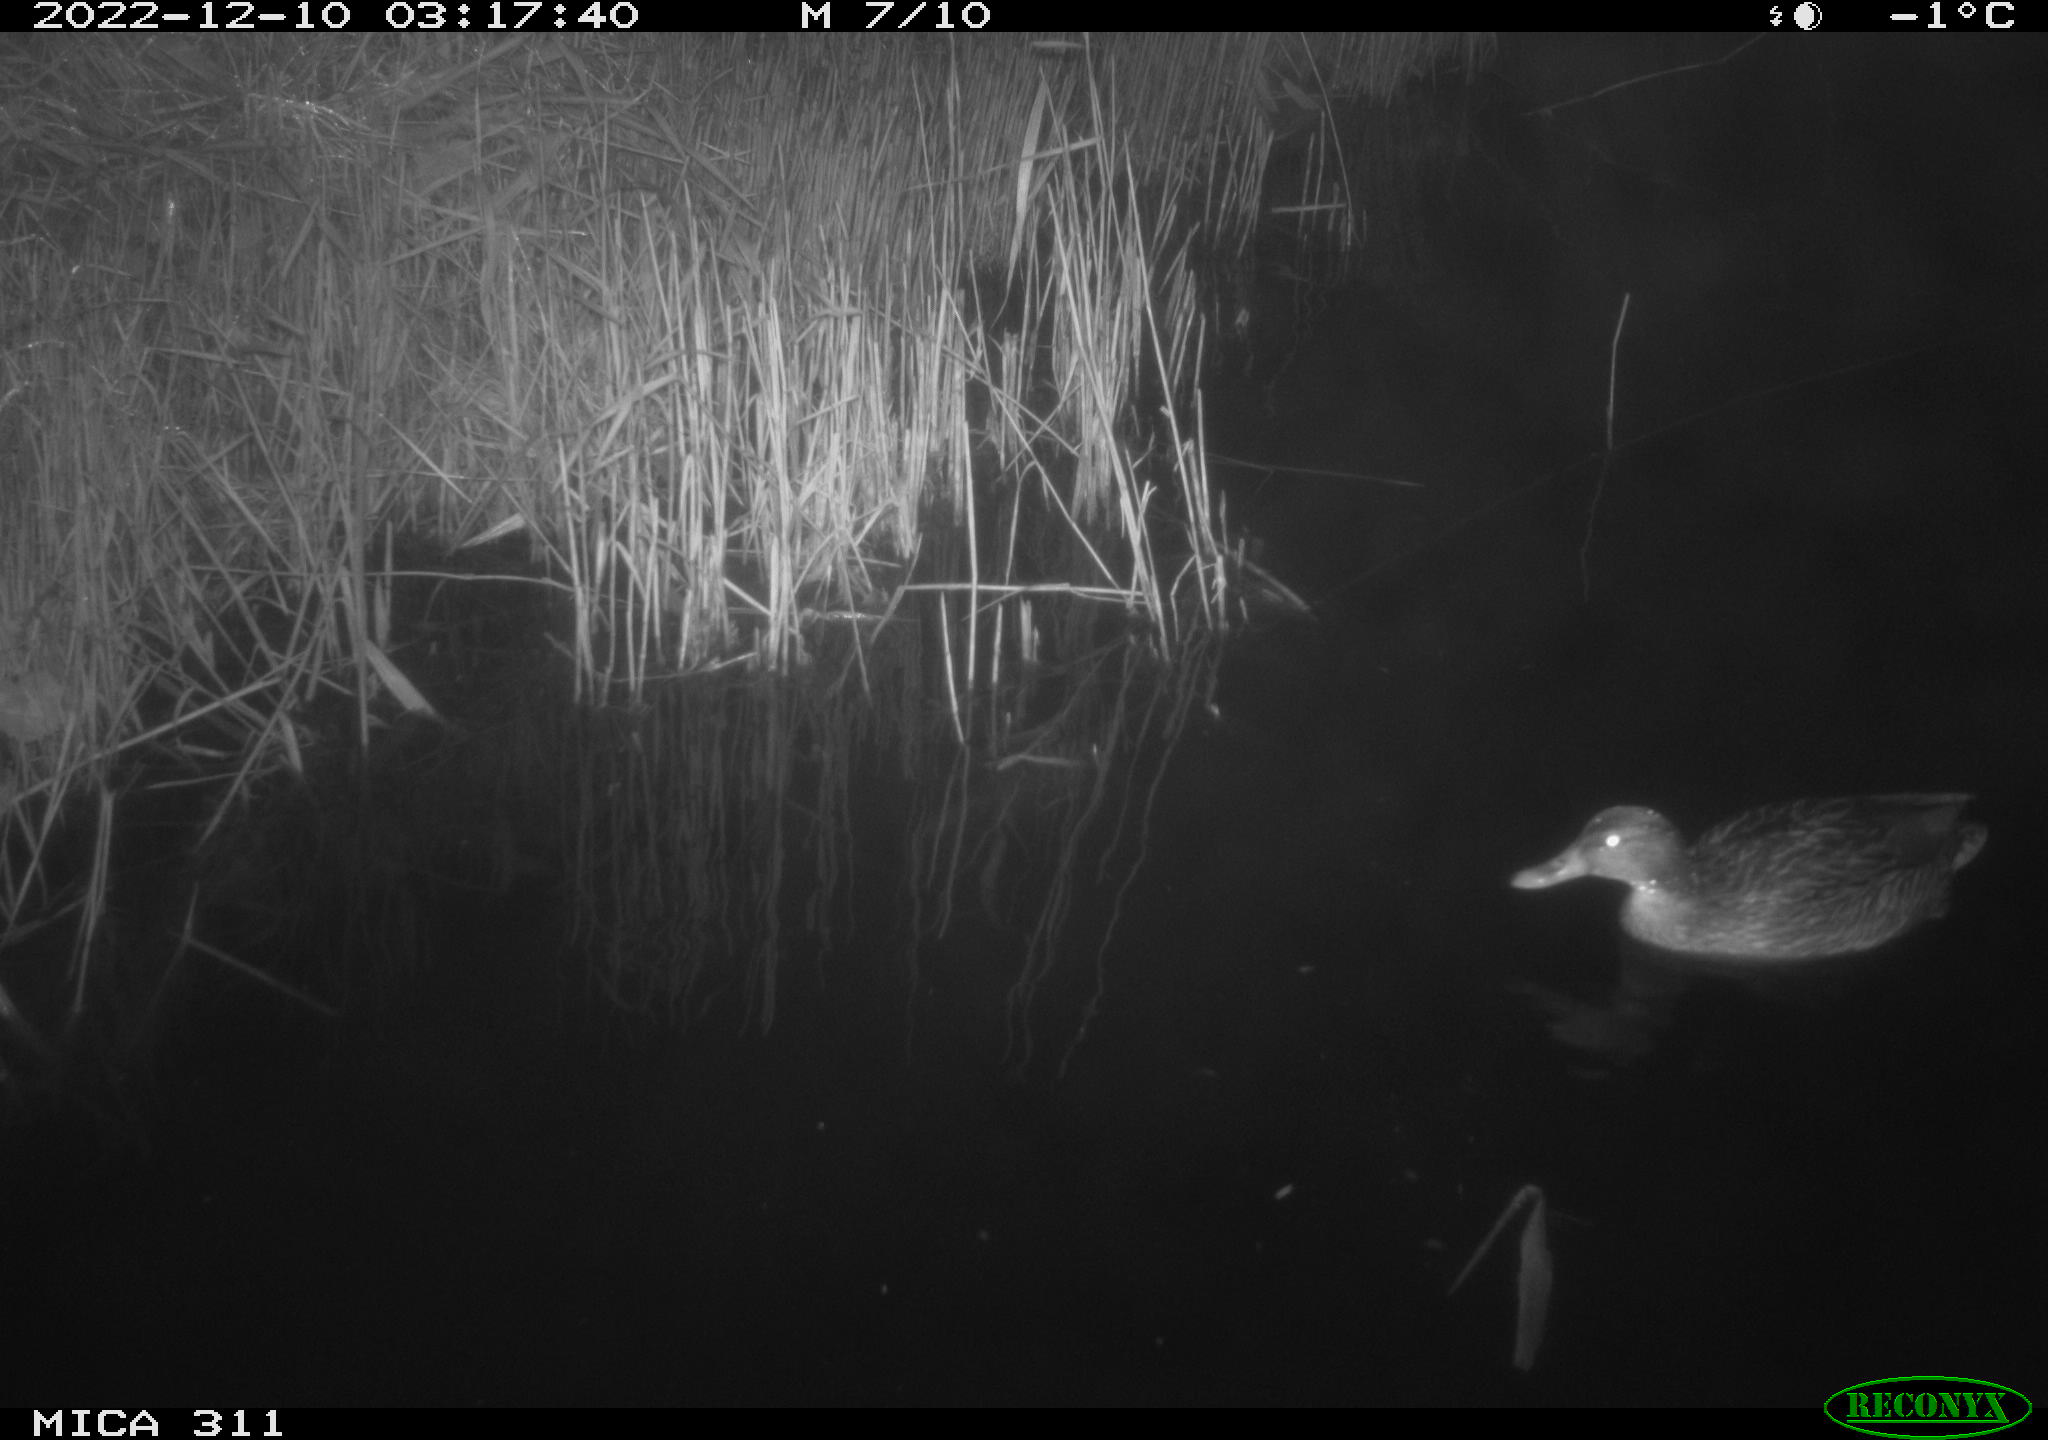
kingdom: Animalia
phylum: Chordata
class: Aves
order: Anseriformes
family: Anatidae
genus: Anas
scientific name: Anas
